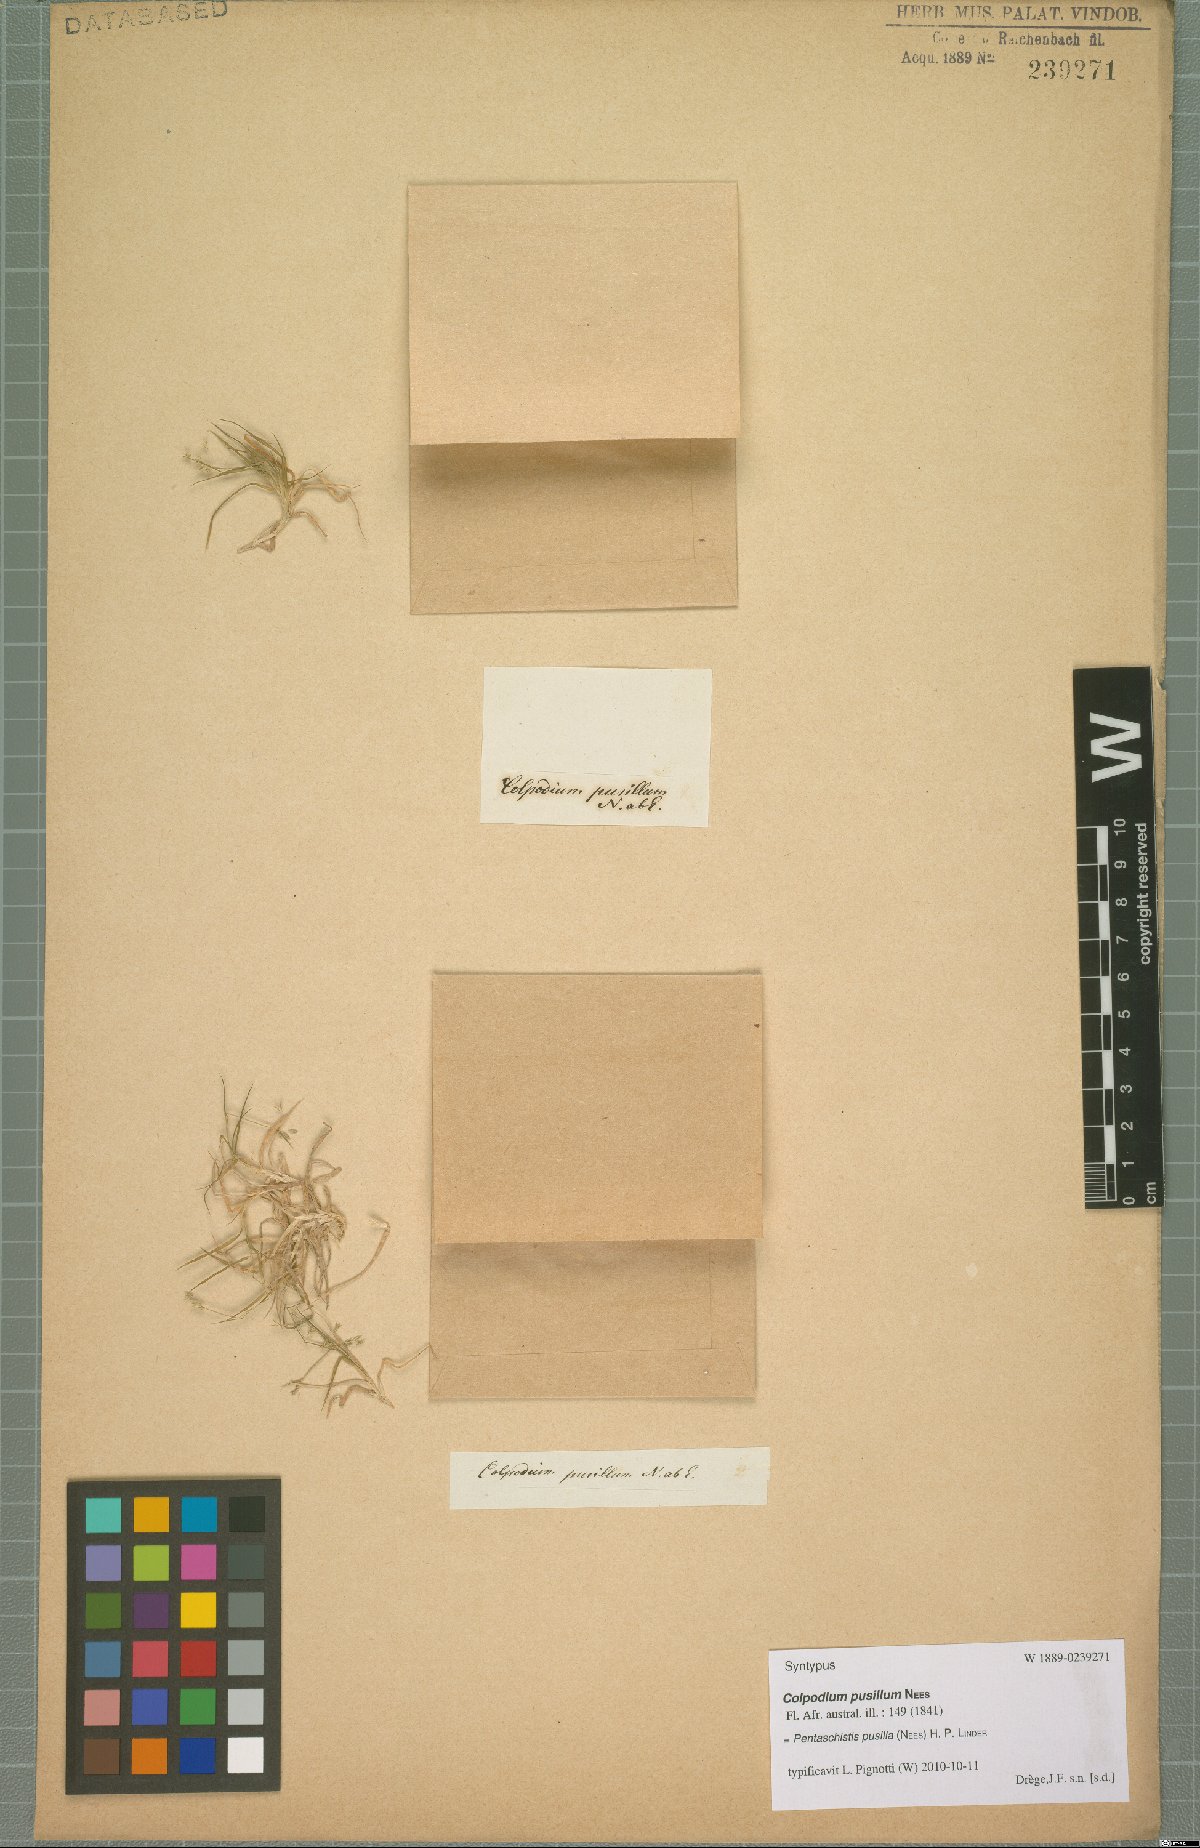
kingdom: Plantae
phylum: Tracheophyta
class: Liliopsida
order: Poales
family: Poaceae
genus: Pentameris
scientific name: Pentameris pusilla
